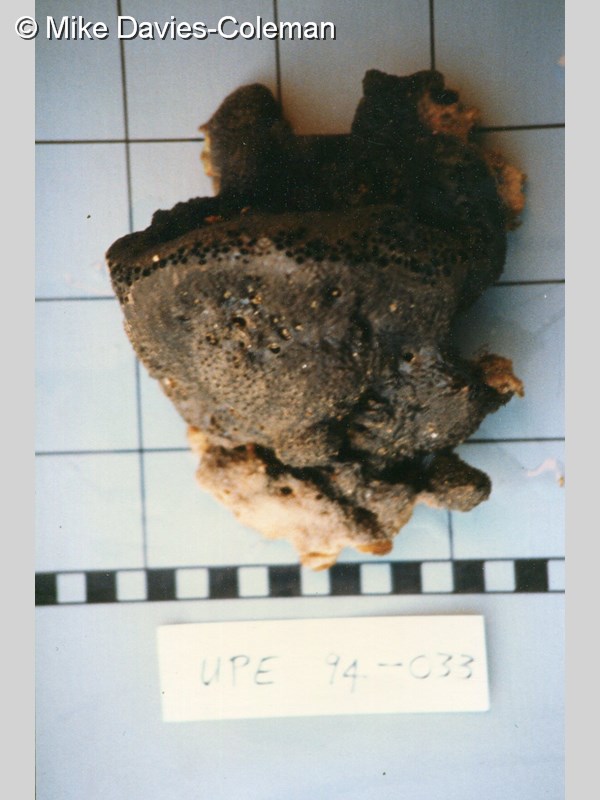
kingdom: Animalia
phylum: Porifera
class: Demospongiae
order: Dictyoceratida
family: Irciniidae
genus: Psammocinia
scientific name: Psammocinia halmiformis
